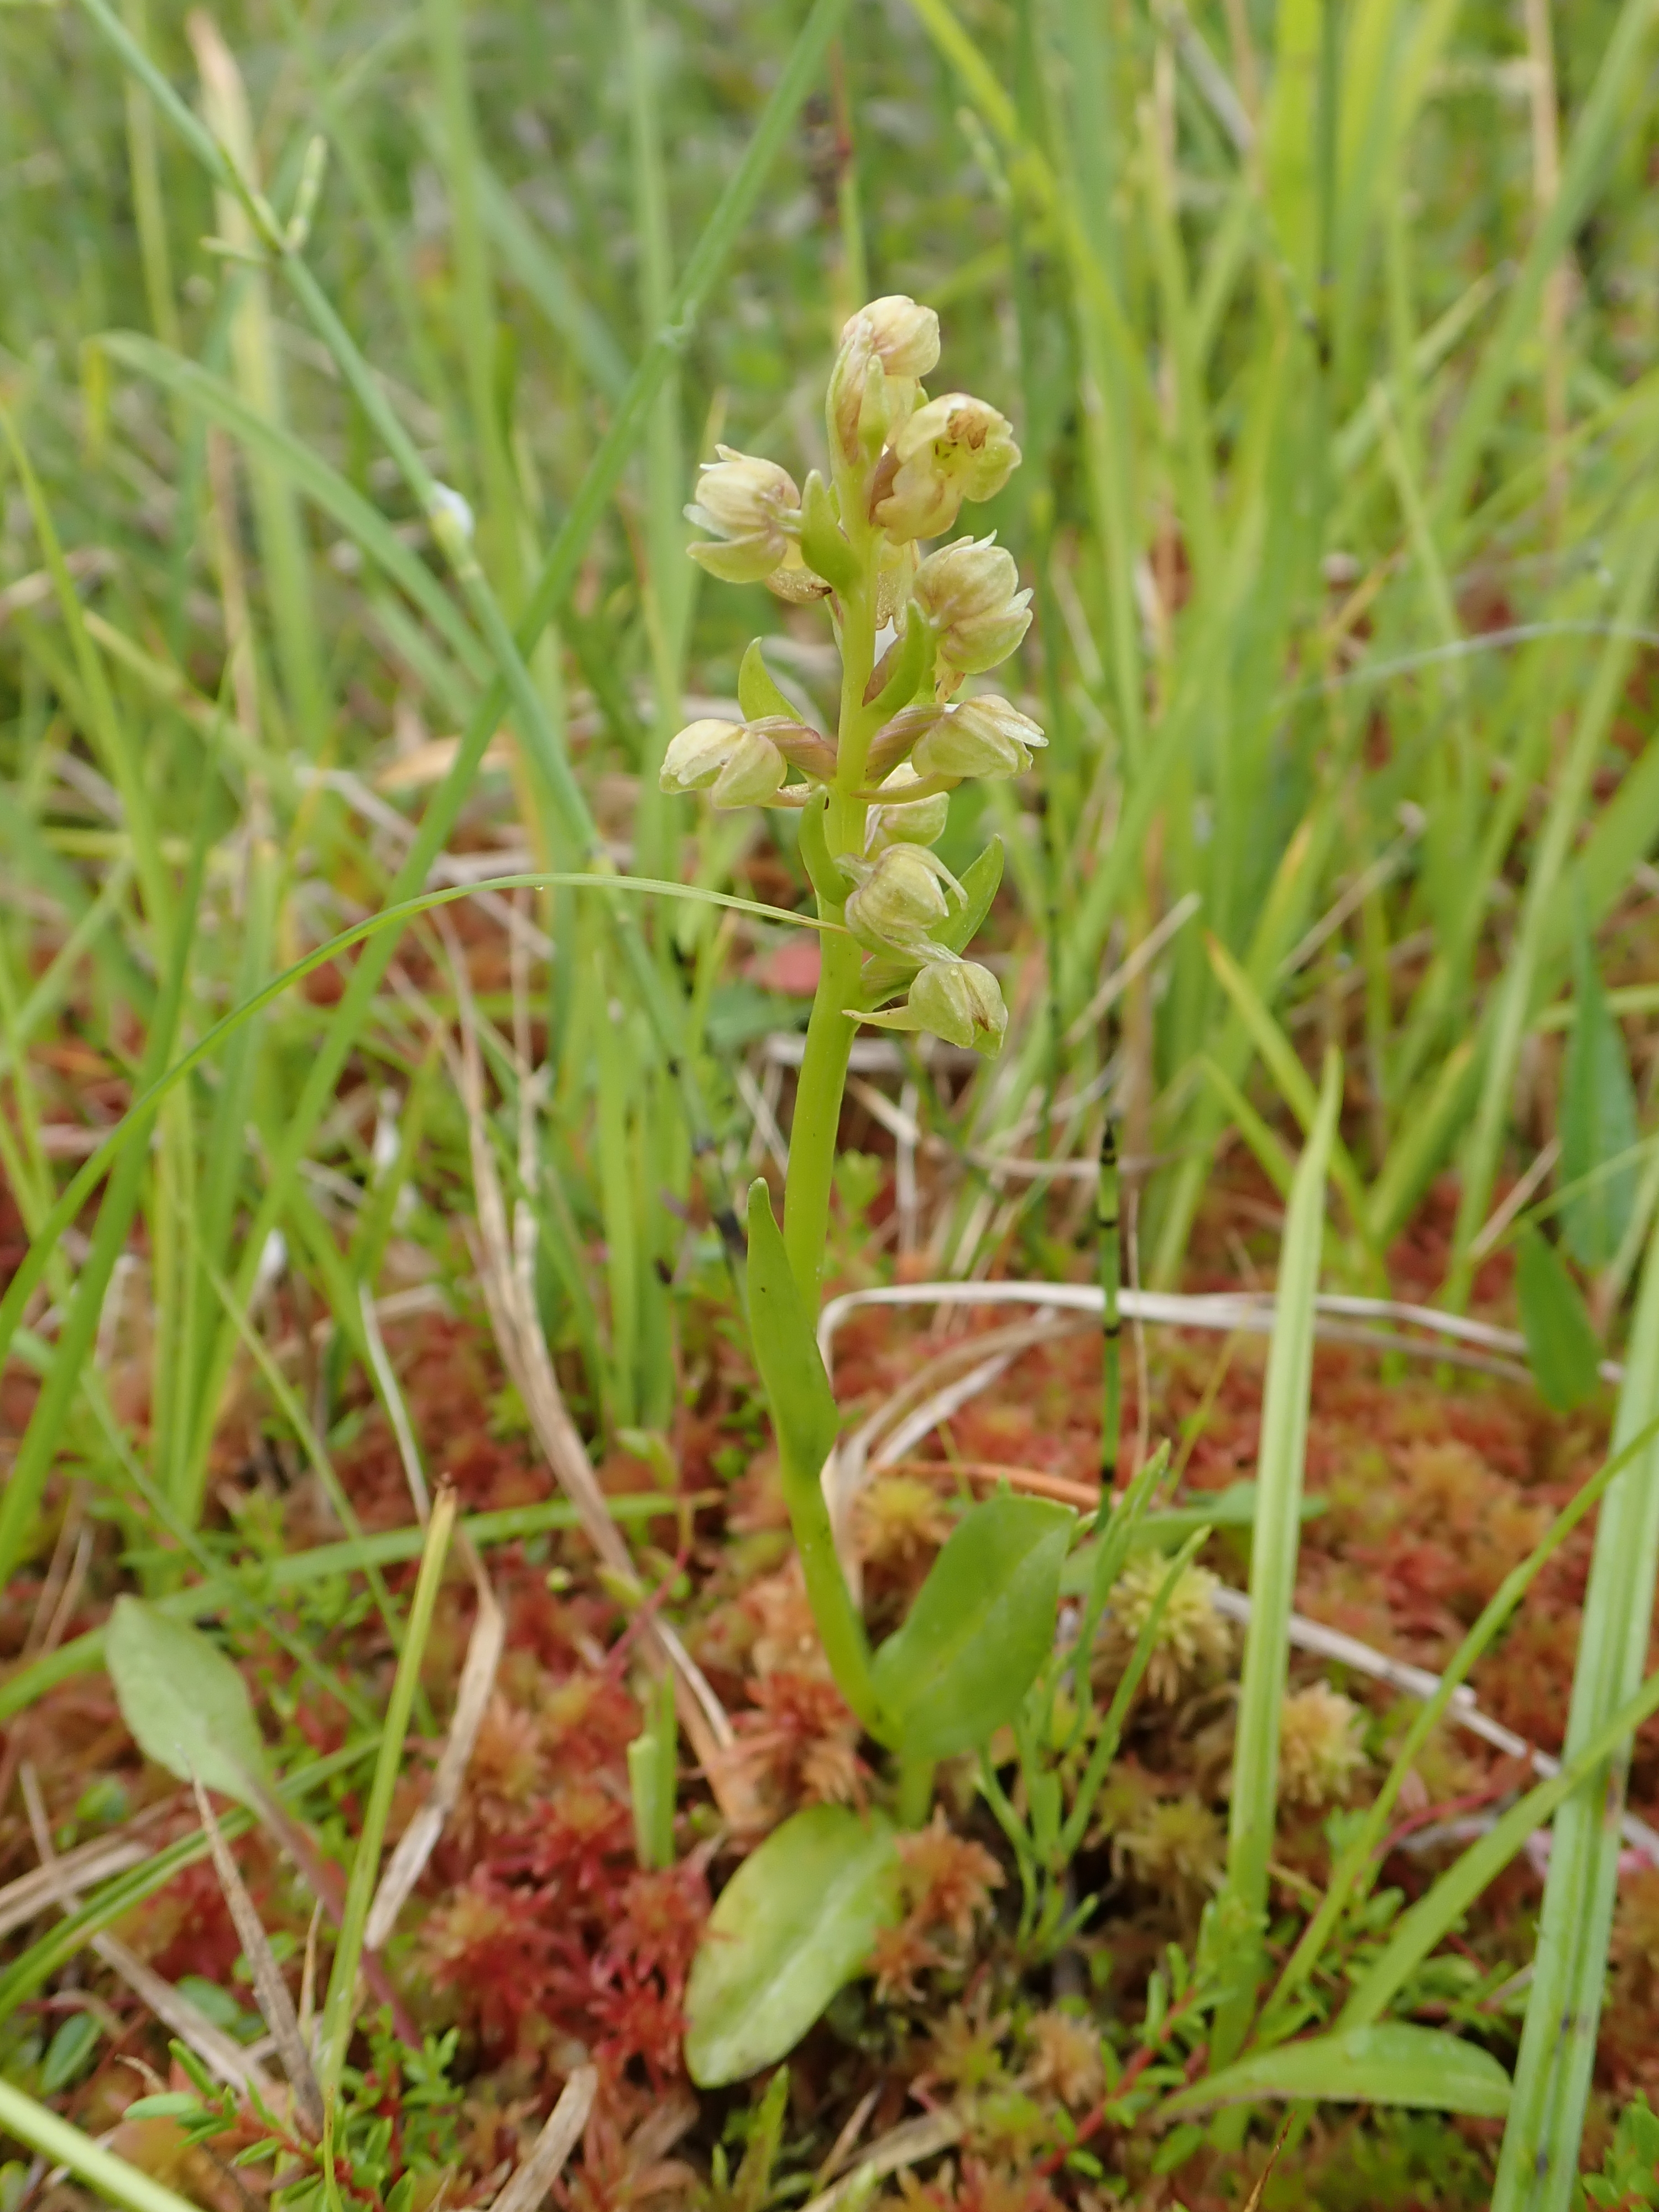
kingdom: Plantae
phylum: Tracheophyta
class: Liliopsida
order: Asparagales
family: Orchidaceae
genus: Dactylorhiza
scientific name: Dactylorhiza viridis
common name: Longbract frog orchid
